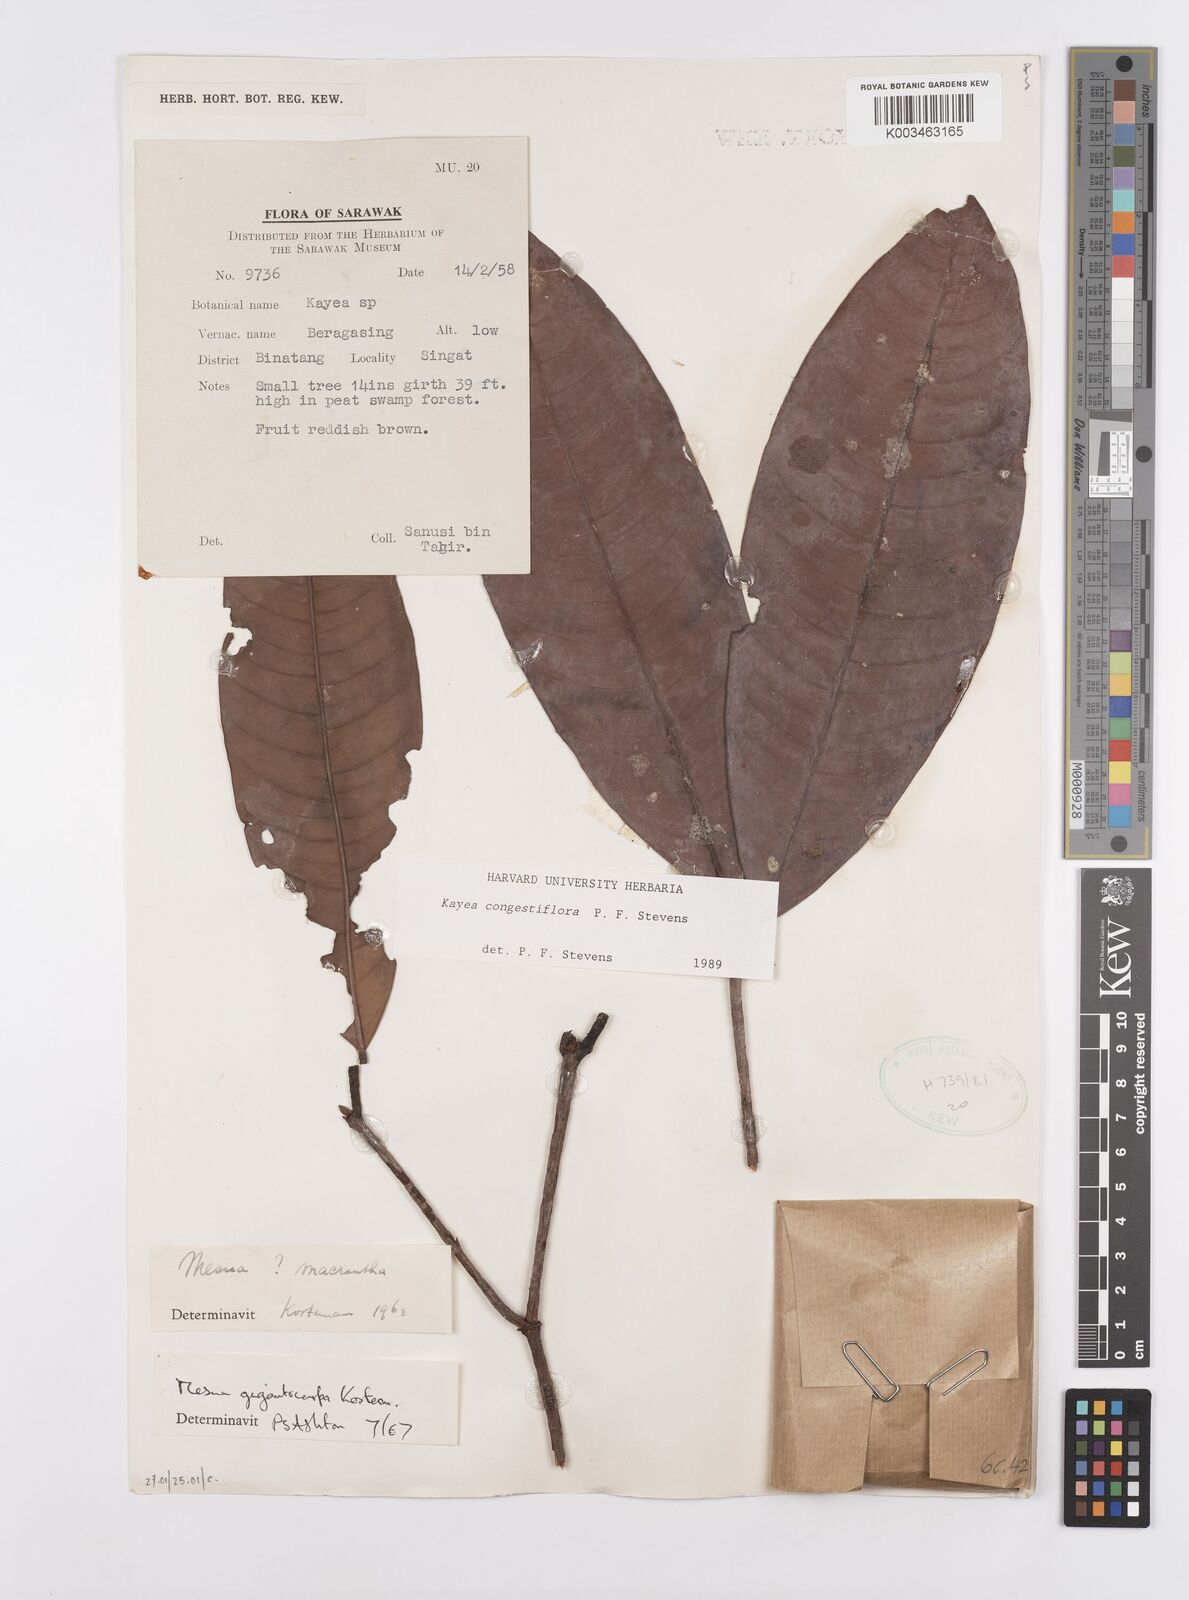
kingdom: Plantae
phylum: Tracheophyta
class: Magnoliopsida
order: Malpighiales
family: Calophyllaceae
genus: Kayea
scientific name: Kayea
